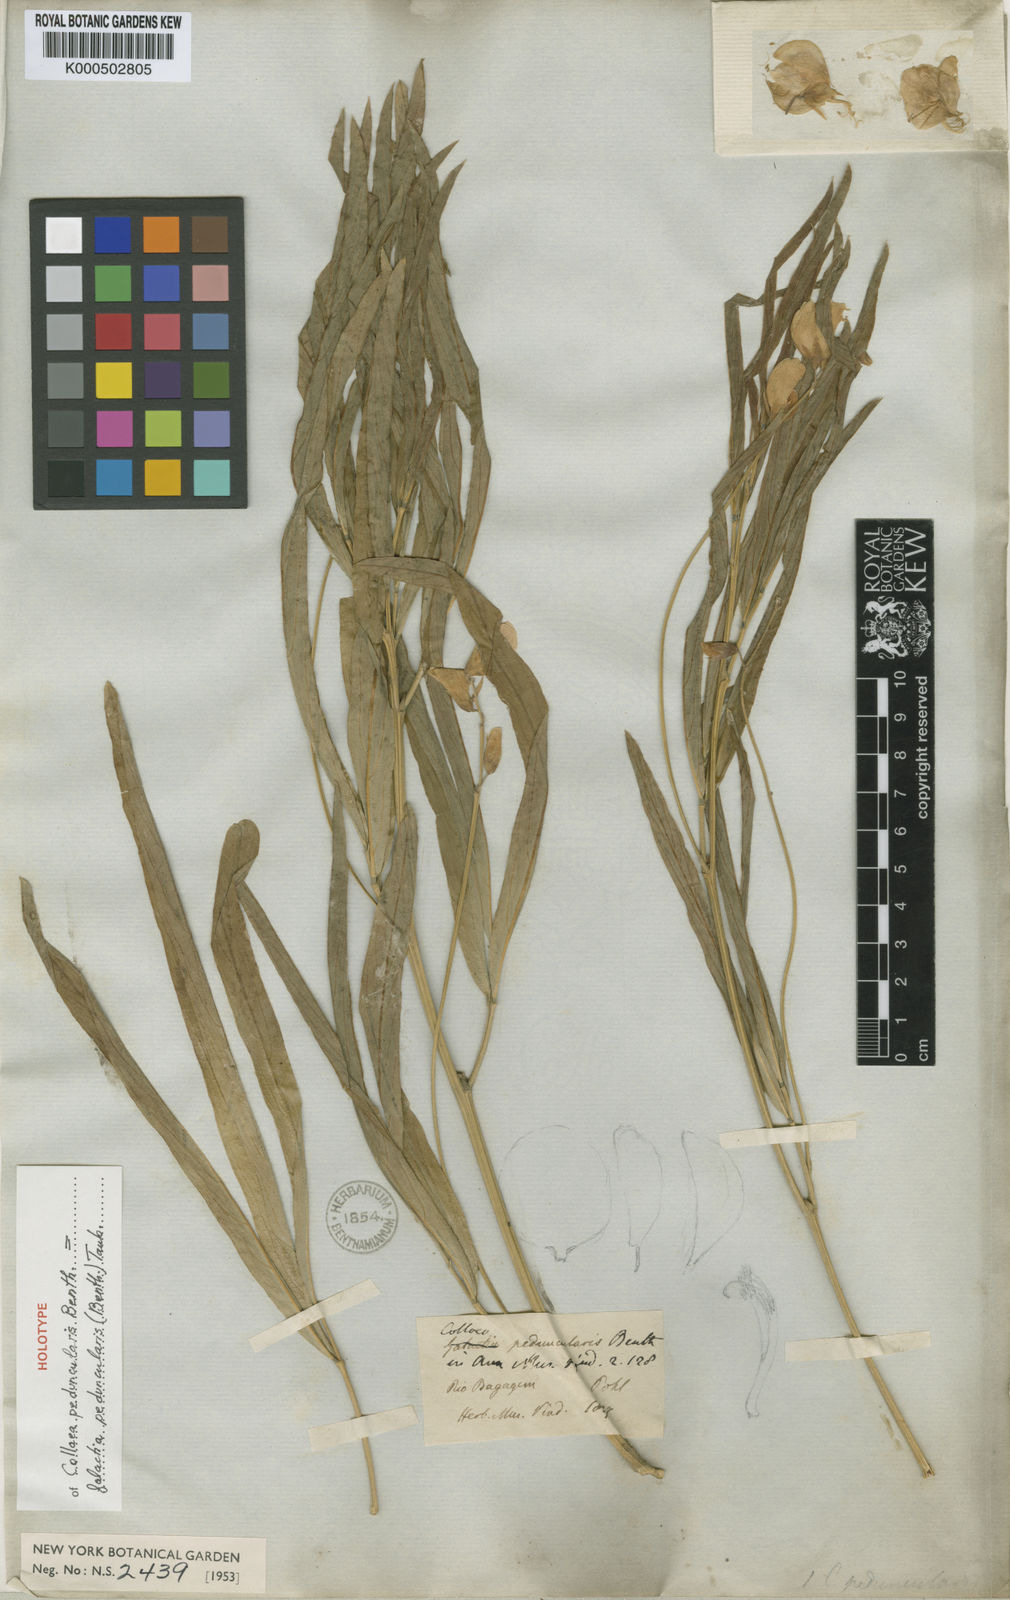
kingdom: Plantae
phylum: Tracheophyta
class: Magnoliopsida
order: Fabales
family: Fabaceae
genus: Galactia
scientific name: Galactia
